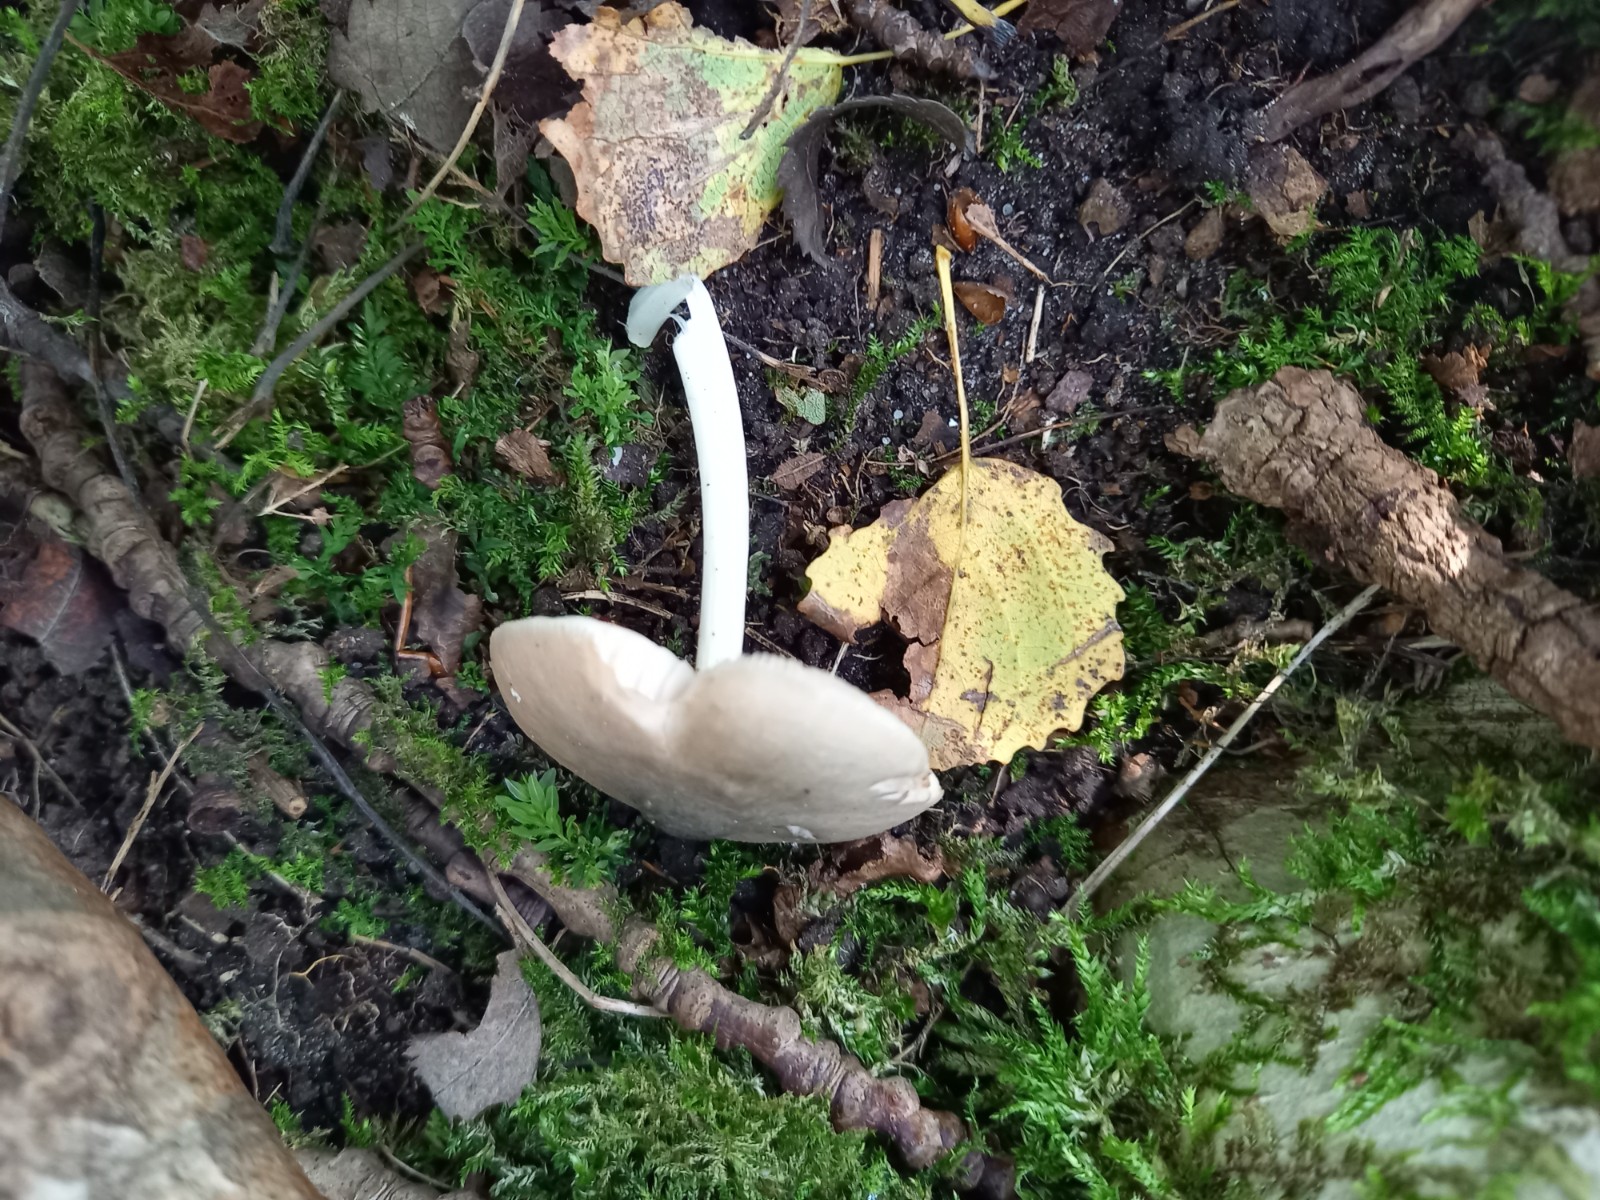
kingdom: Fungi
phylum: Basidiomycota
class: Agaricomycetes
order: Agaricales
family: Pluteaceae
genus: Pluteus
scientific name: Pluteus salicinus
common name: stiv skærmhat
